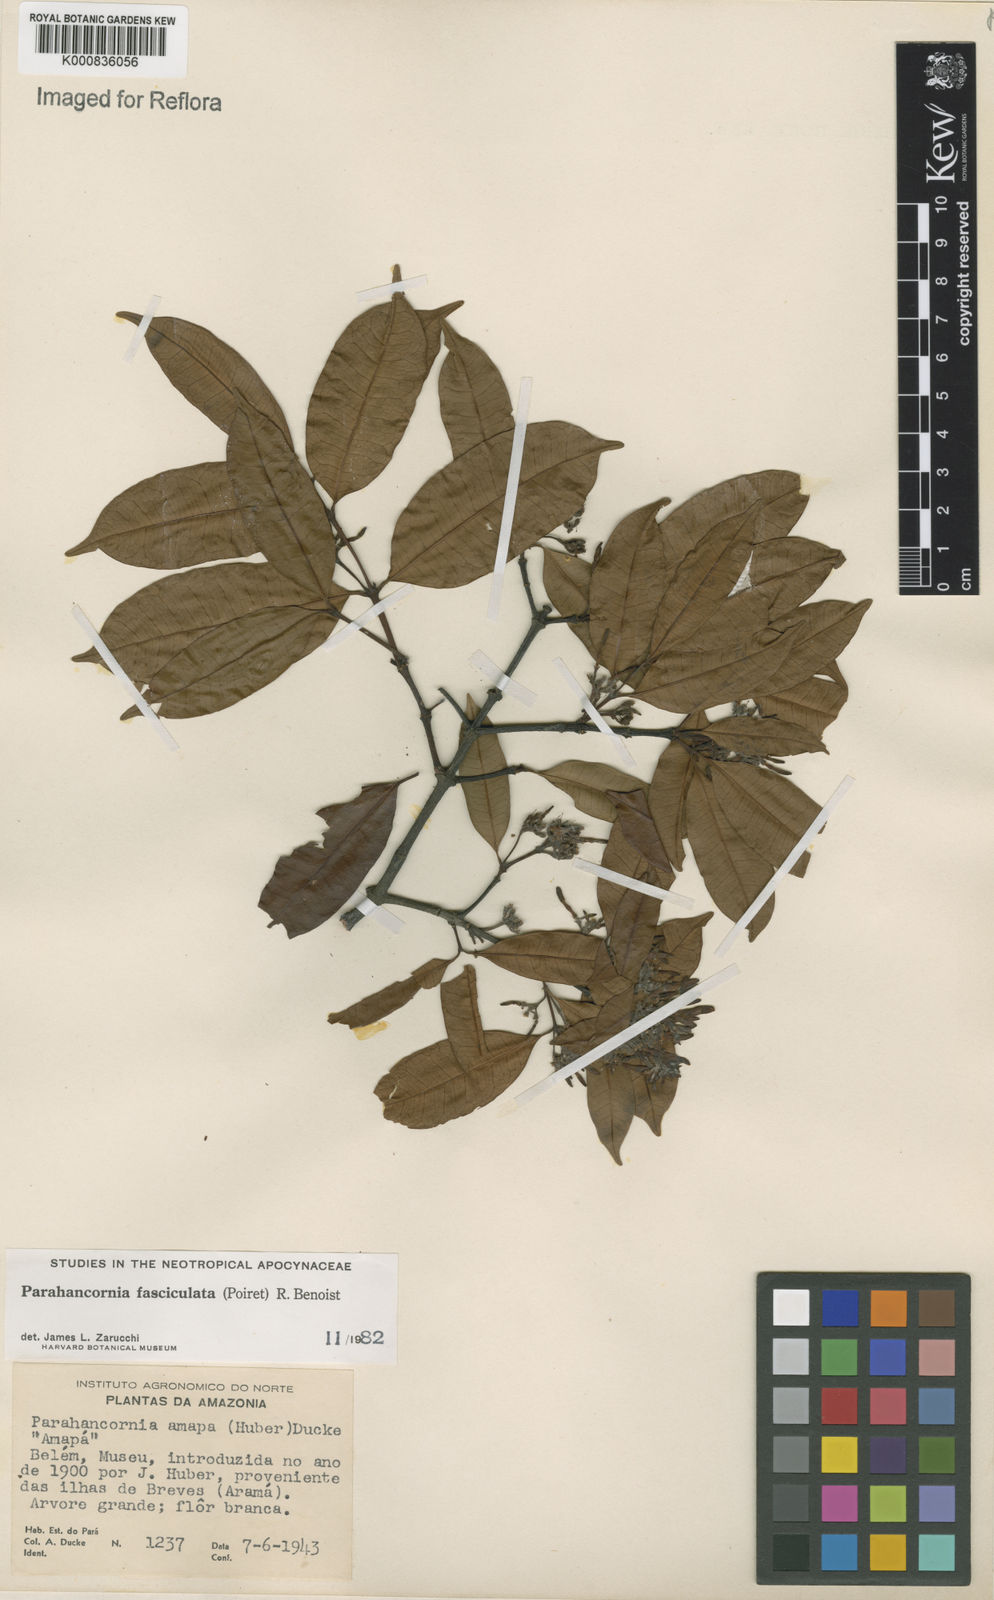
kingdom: Plantae
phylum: Tracheophyta
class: Magnoliopsida
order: Gentianales
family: Apocynaceae
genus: Parahancornia
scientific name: Parahancornia fasciculata
